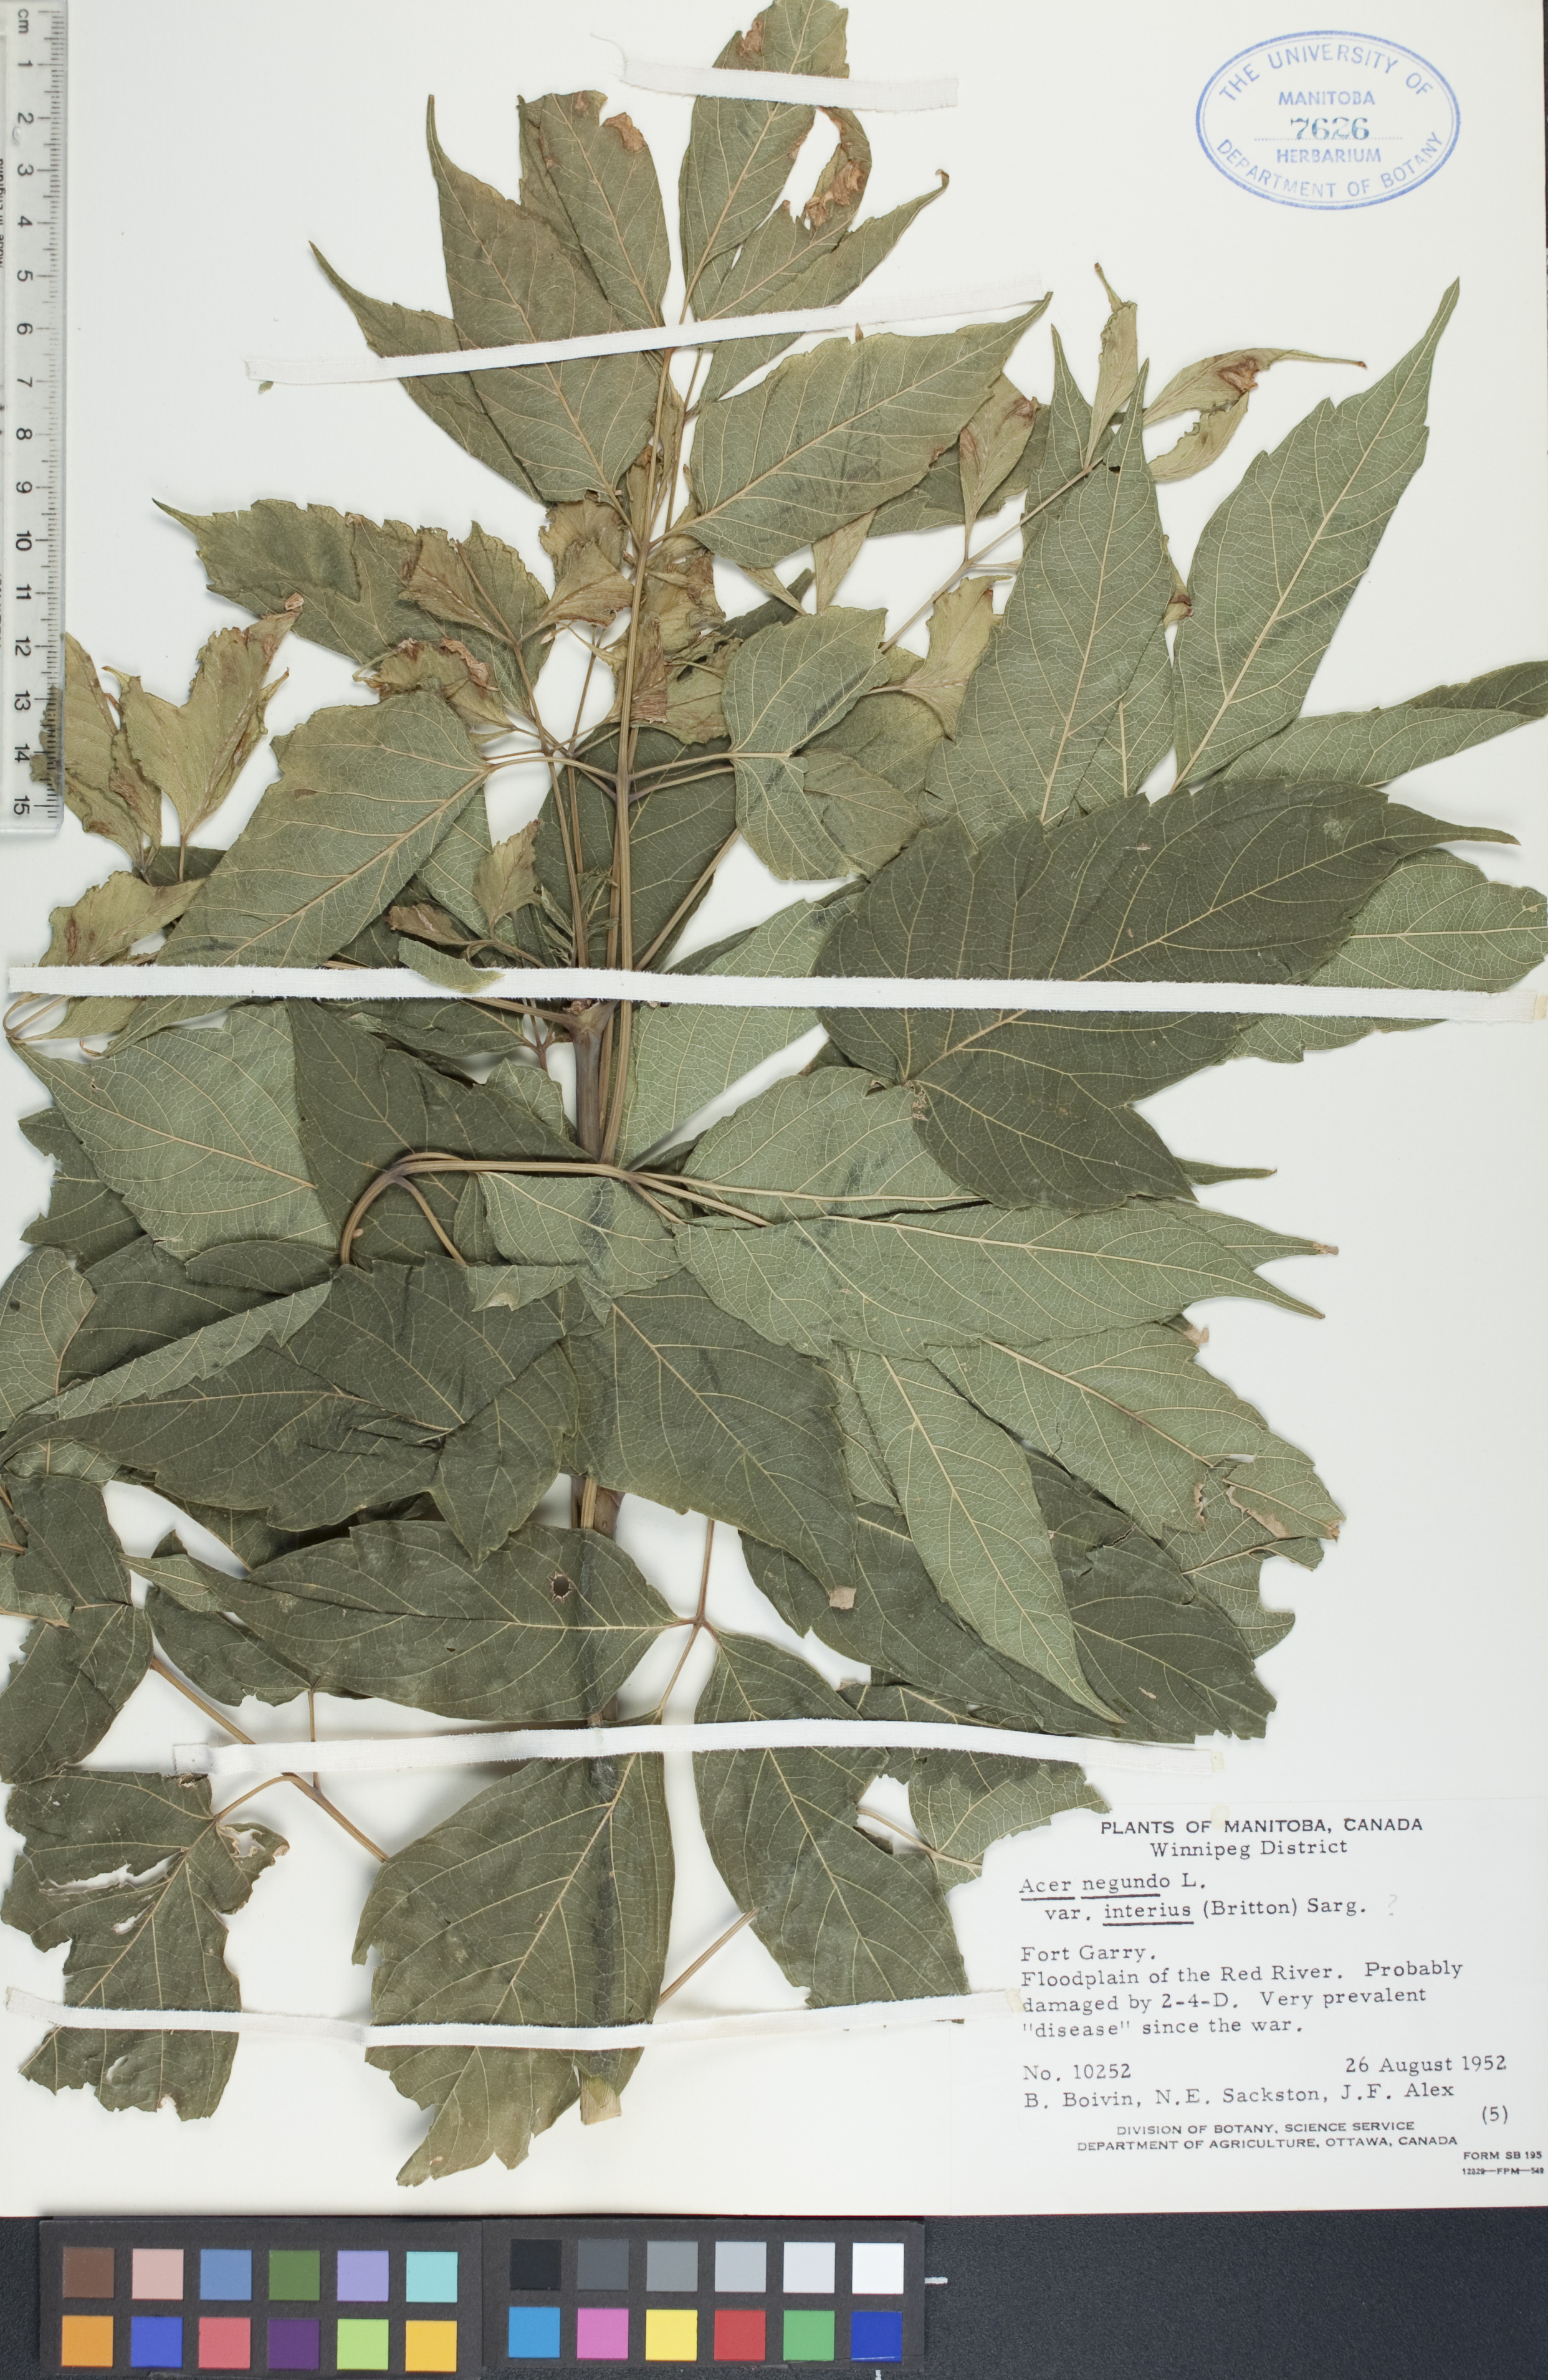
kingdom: Plantae
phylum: Tracheophyta
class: Magnoliopsida
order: Sapindales
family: Sapindaceae
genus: Acer
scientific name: Acer negundo
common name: Ashleaf maple
